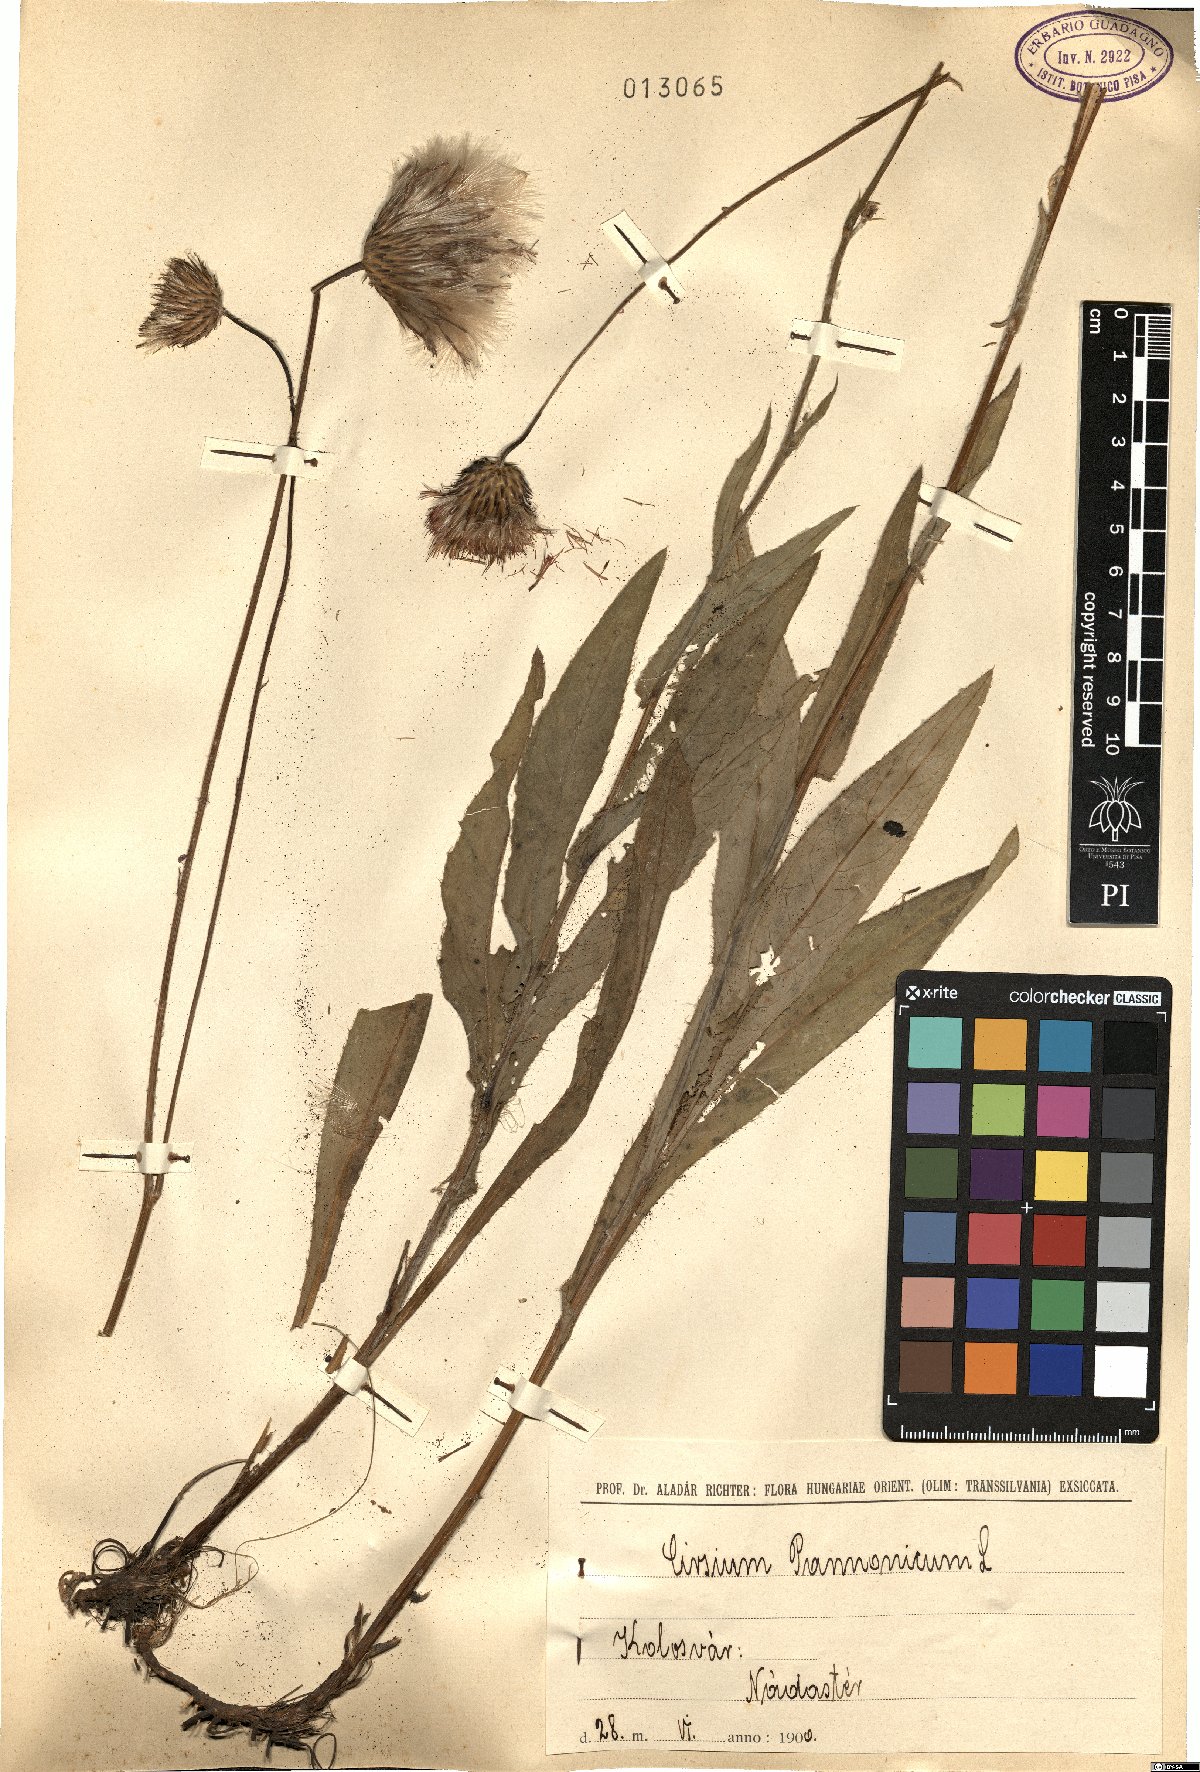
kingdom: Plantae
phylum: Tracheophyta
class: Magnoliopsida
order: Asterales
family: Asteraceae
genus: Cirsium
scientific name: Cirsium pannonicum
